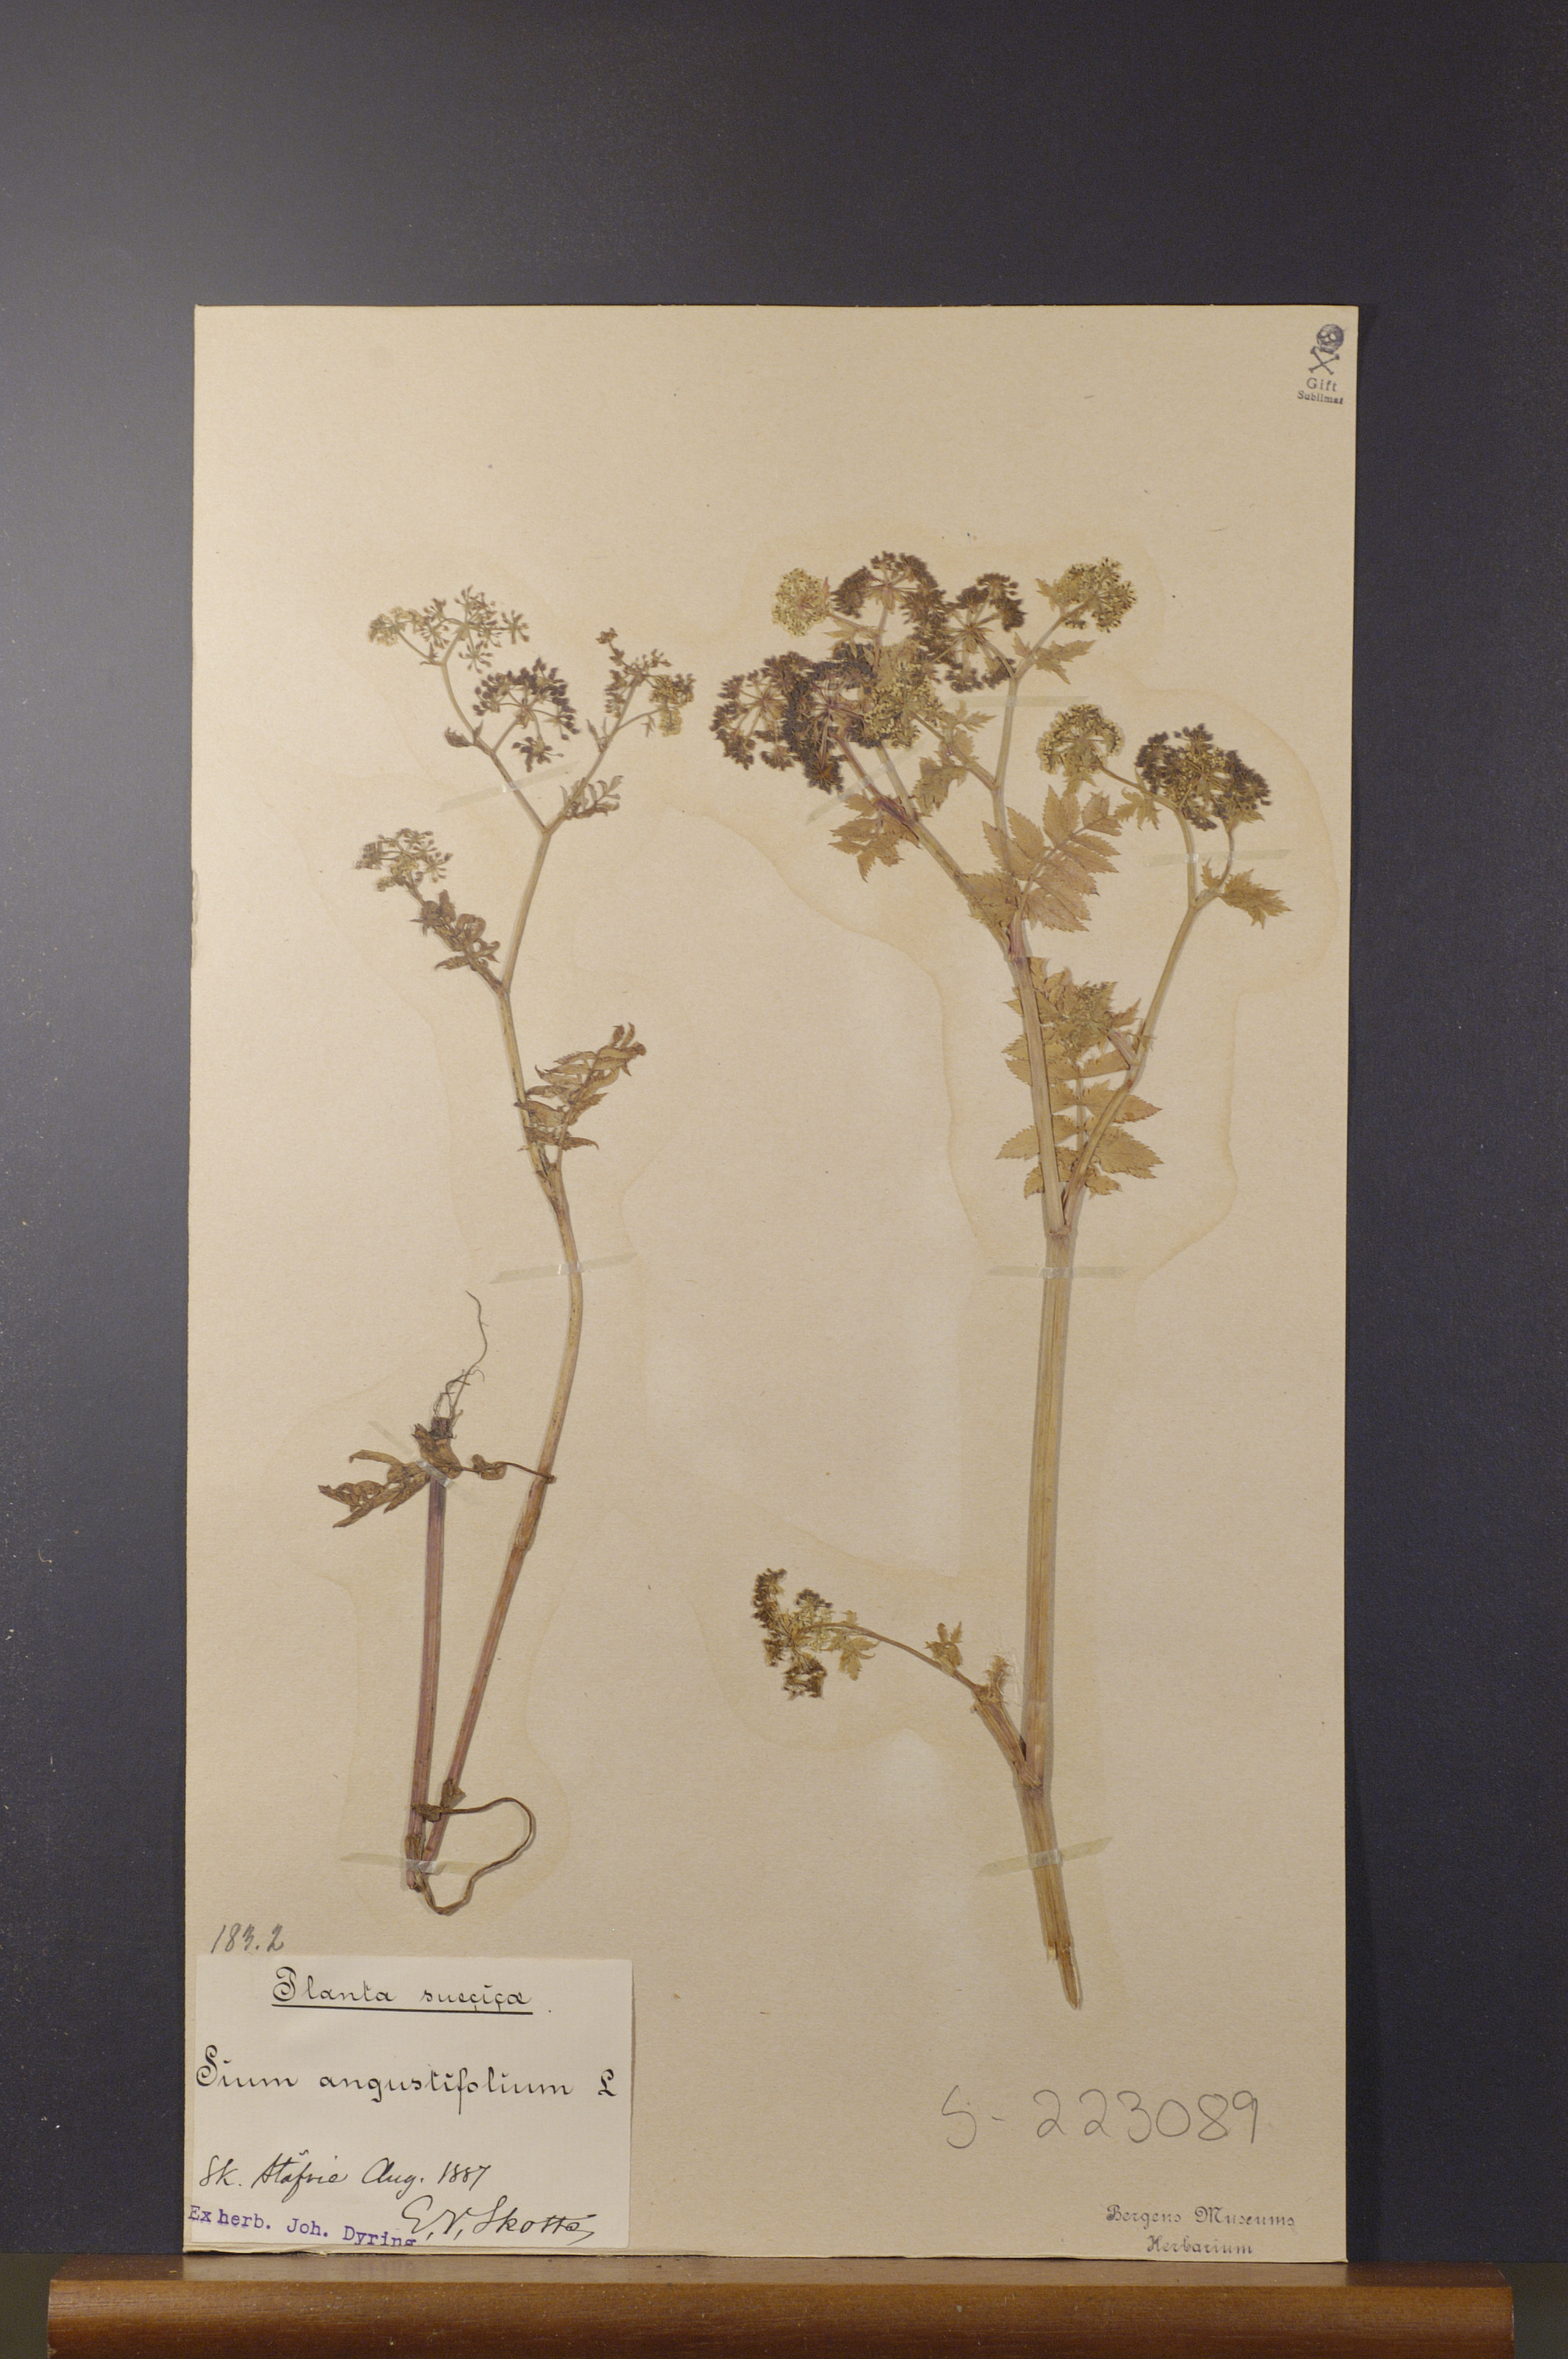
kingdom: Plantae
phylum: Tracheophyta
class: Magnoliopsida
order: Apiales
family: Apiaceae
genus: Berula
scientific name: Berula erecta
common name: Lesser water-parsnip
